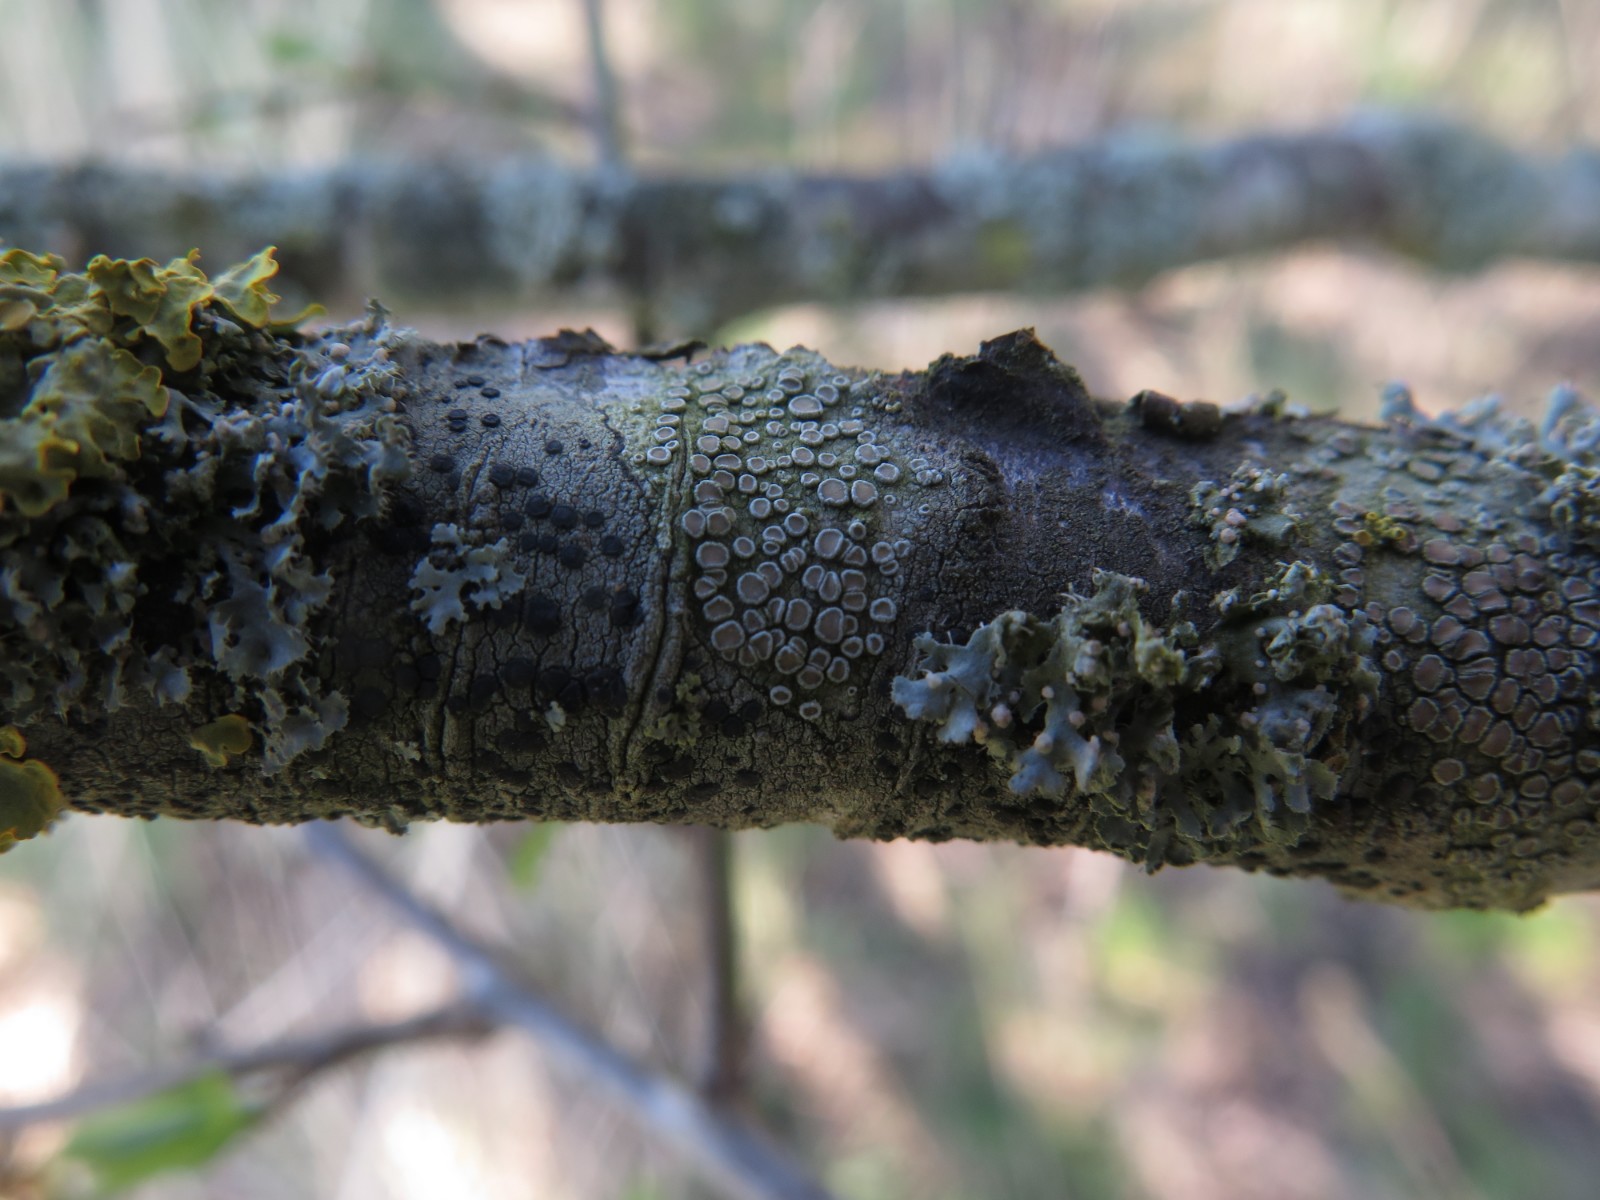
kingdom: Fungi
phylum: Ascomycota
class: Lecanoromycetes
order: Lecanorales
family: Lecanoraceae
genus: Lecanora
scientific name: Lecanora chlarotera
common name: brun kantskivelav
